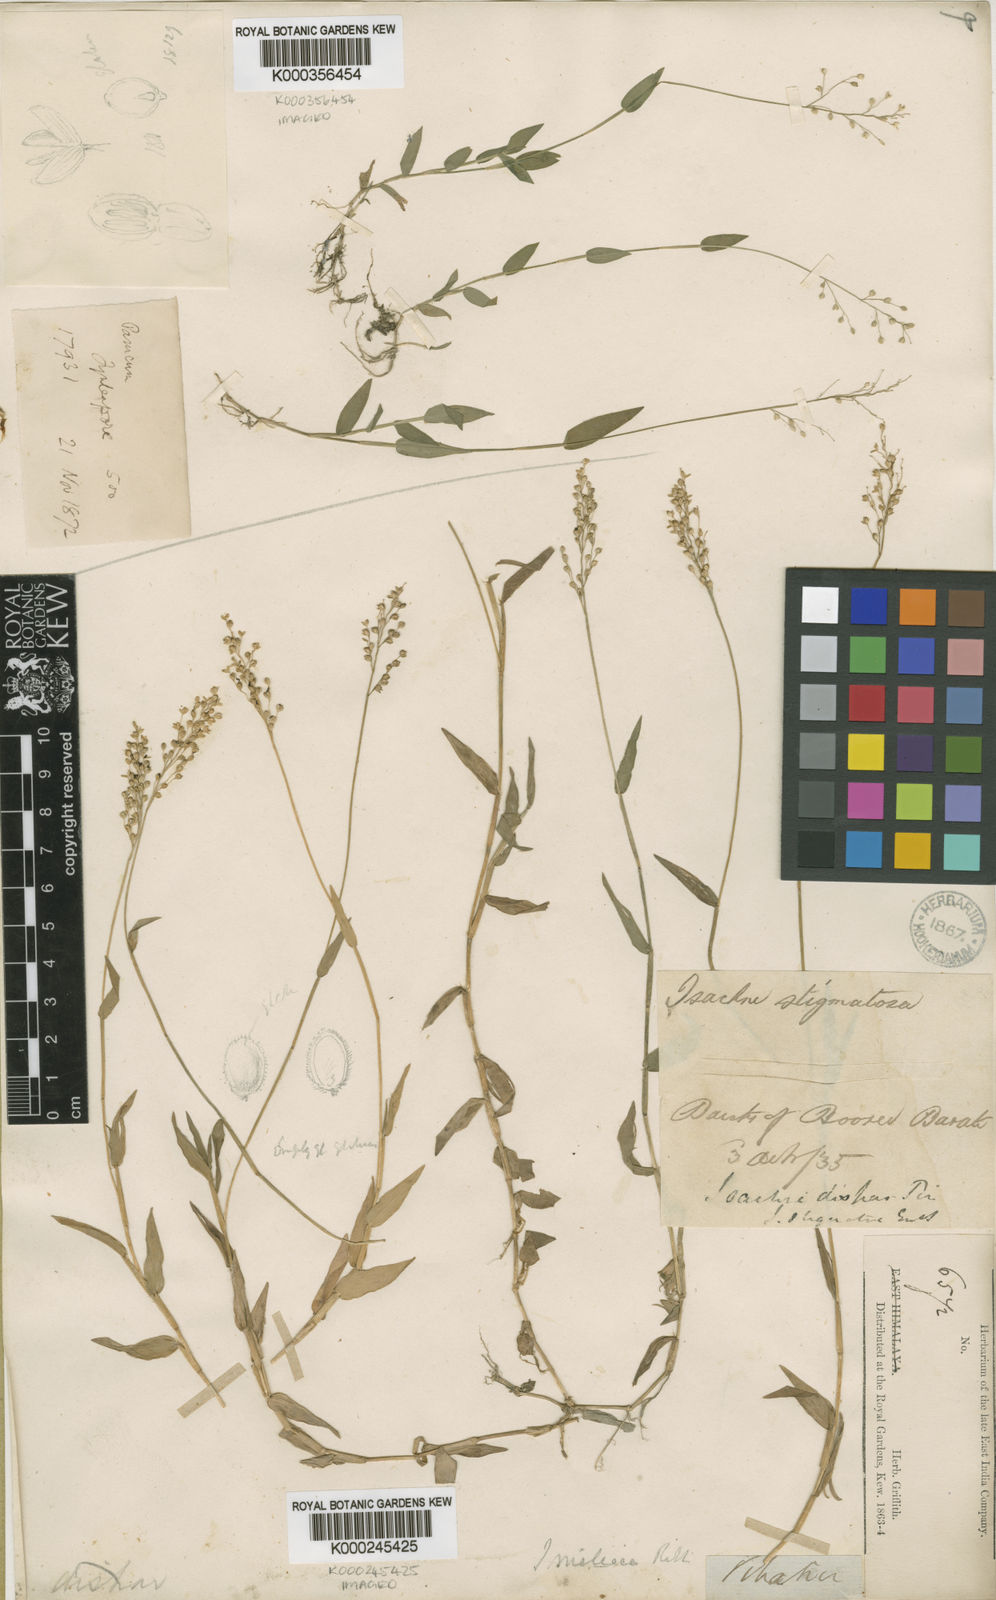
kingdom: Plantae
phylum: Tracheophyta
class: Liliopsida
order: Poales
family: Poaceae
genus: Isachne
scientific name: Isachne globosa
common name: Swamp millet
